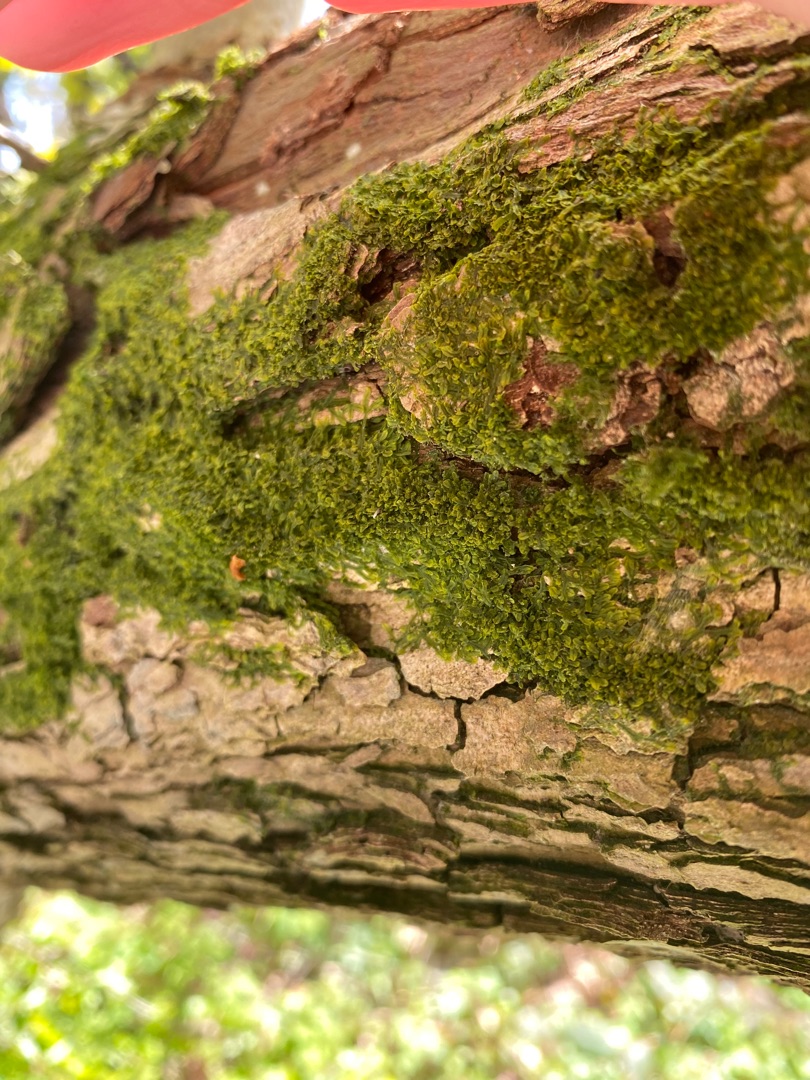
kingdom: Plantae
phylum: Marchantiophyta
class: Jungermanniopsida
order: Metzgeriales
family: Metzgeriaceae
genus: Metzgeria
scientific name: Metzgeria furcata
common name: Almindelig gaffelløv
